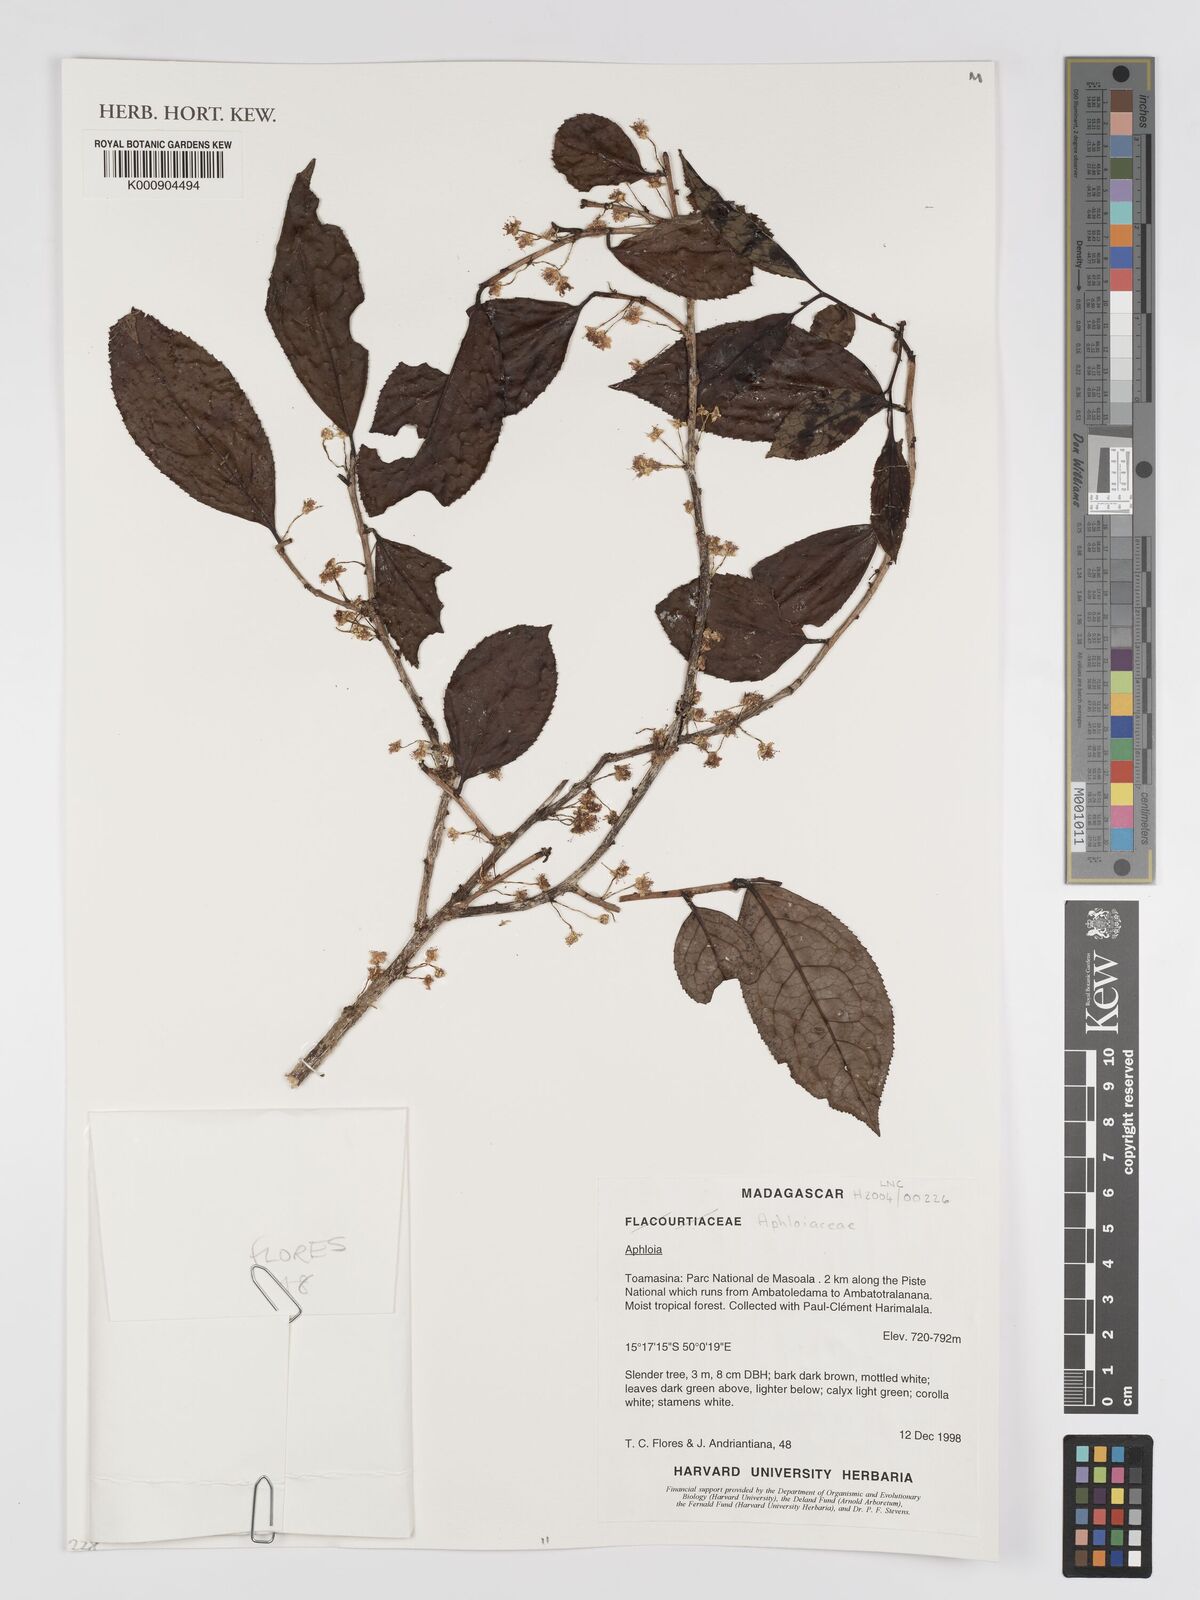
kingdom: Plantae
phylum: Tracheophyta
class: Magnoliopsida
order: Crossosomatales
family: Aphloiaceae
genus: Aphloia
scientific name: Aphloia
